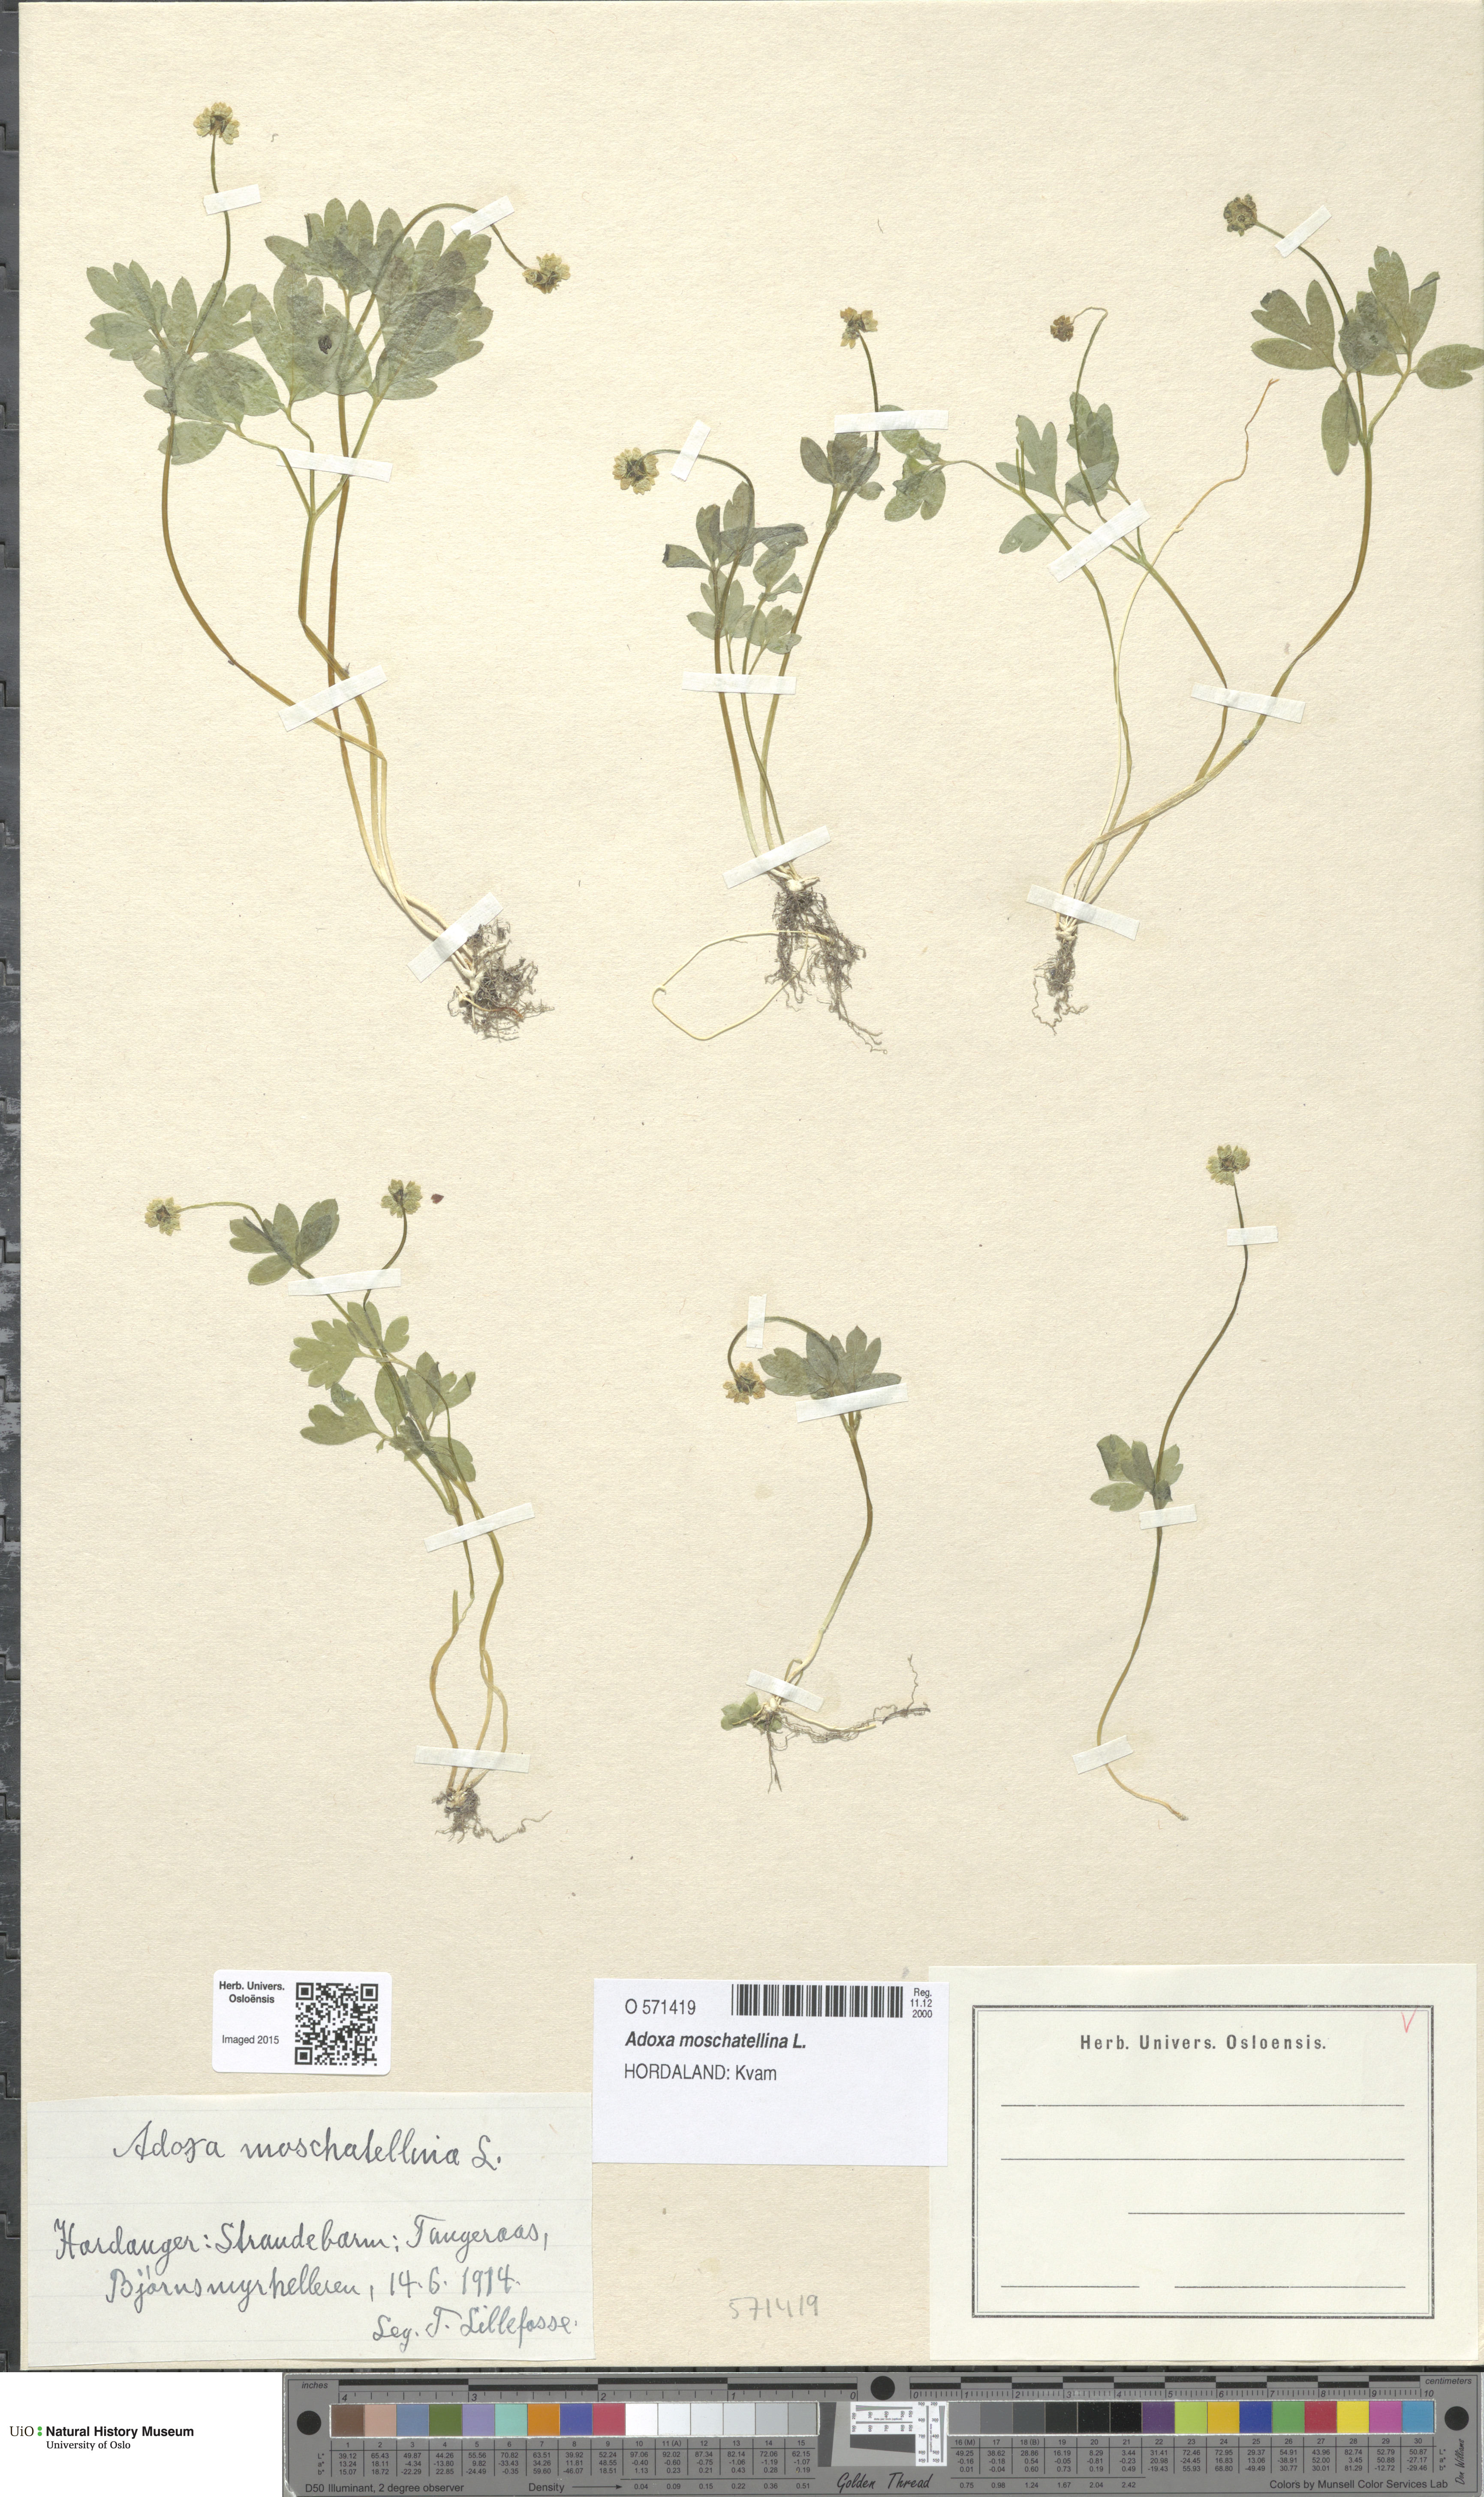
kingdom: Plantae
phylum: Tracheophyta
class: Magnoliopsida
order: Dipsacales
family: Viburnaceae
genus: Adoxa
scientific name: Adoxa moschatellina
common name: Moschatel
